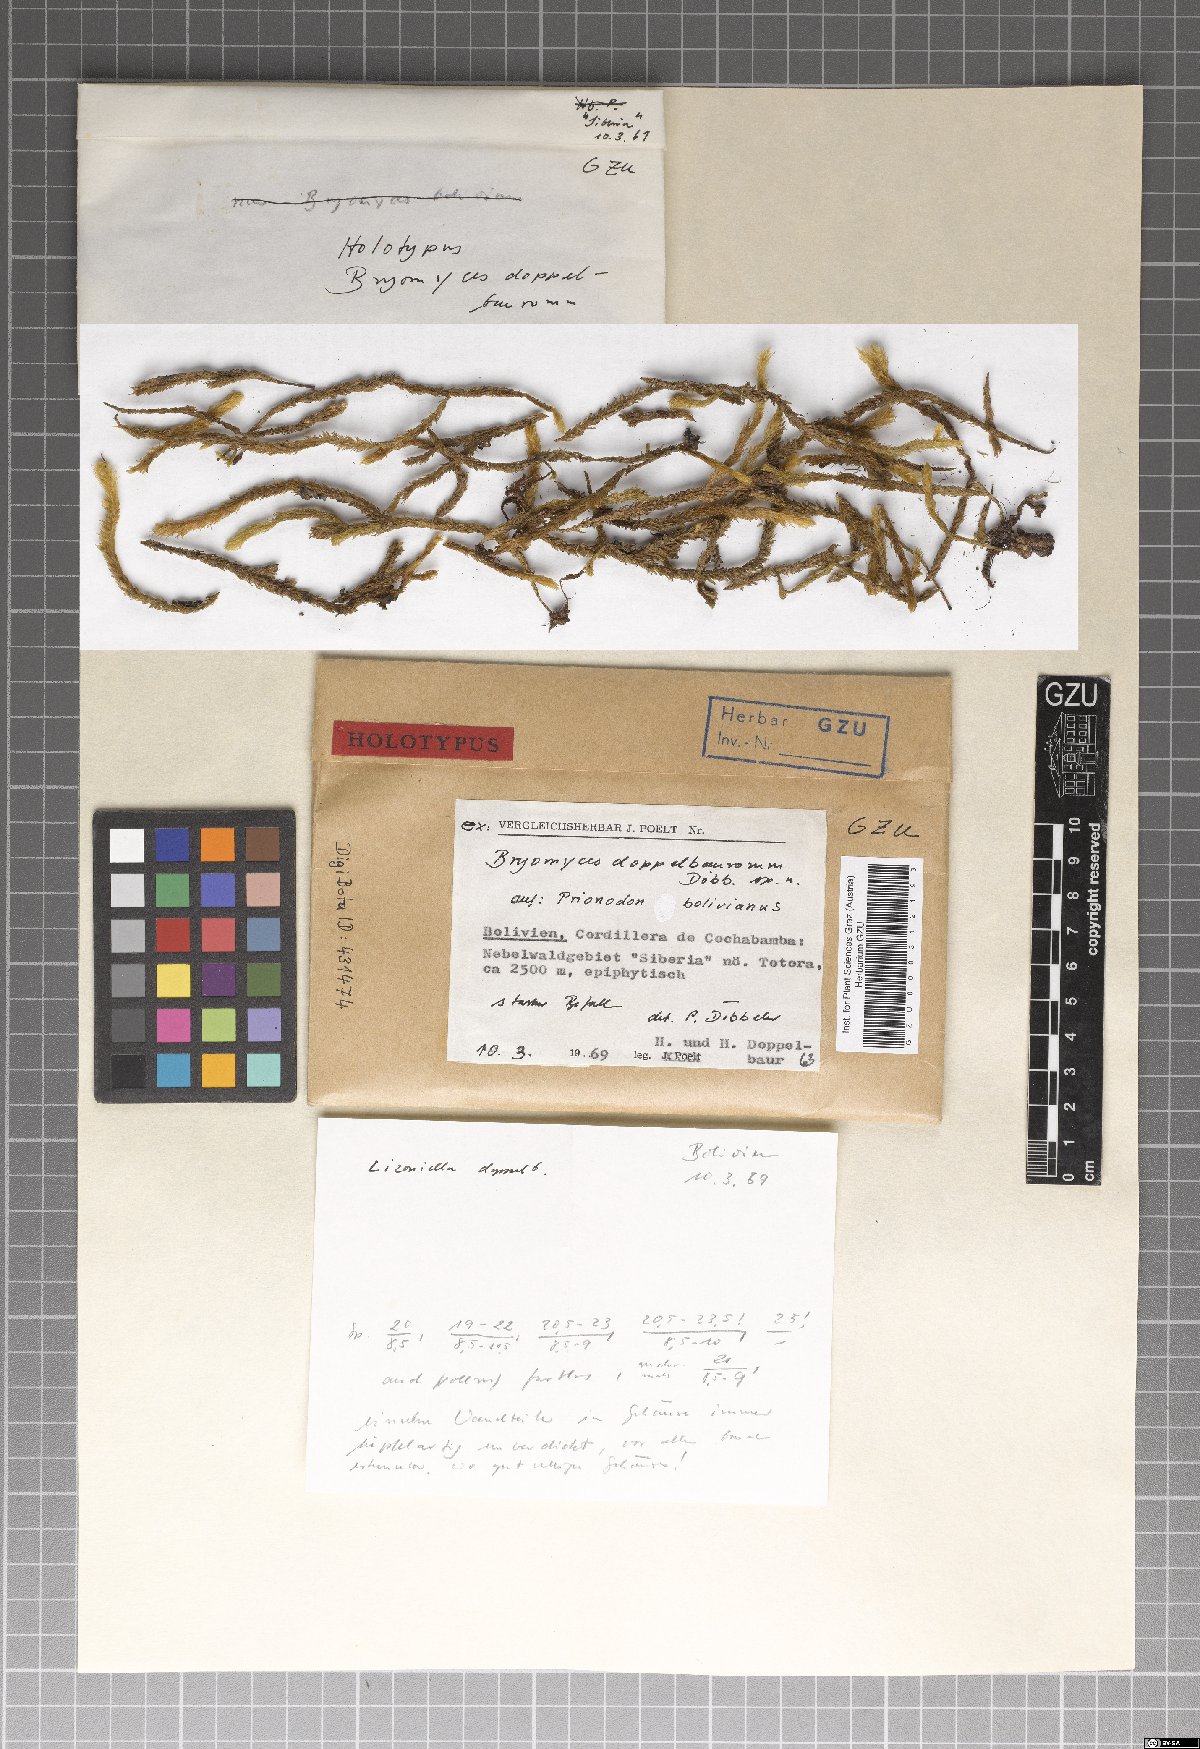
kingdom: Fungi
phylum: Ascomycota
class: Dothideomycetes
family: Pseudoperisporiaceae
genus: Bryomyces
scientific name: Bryomyces doppelbaurorum
